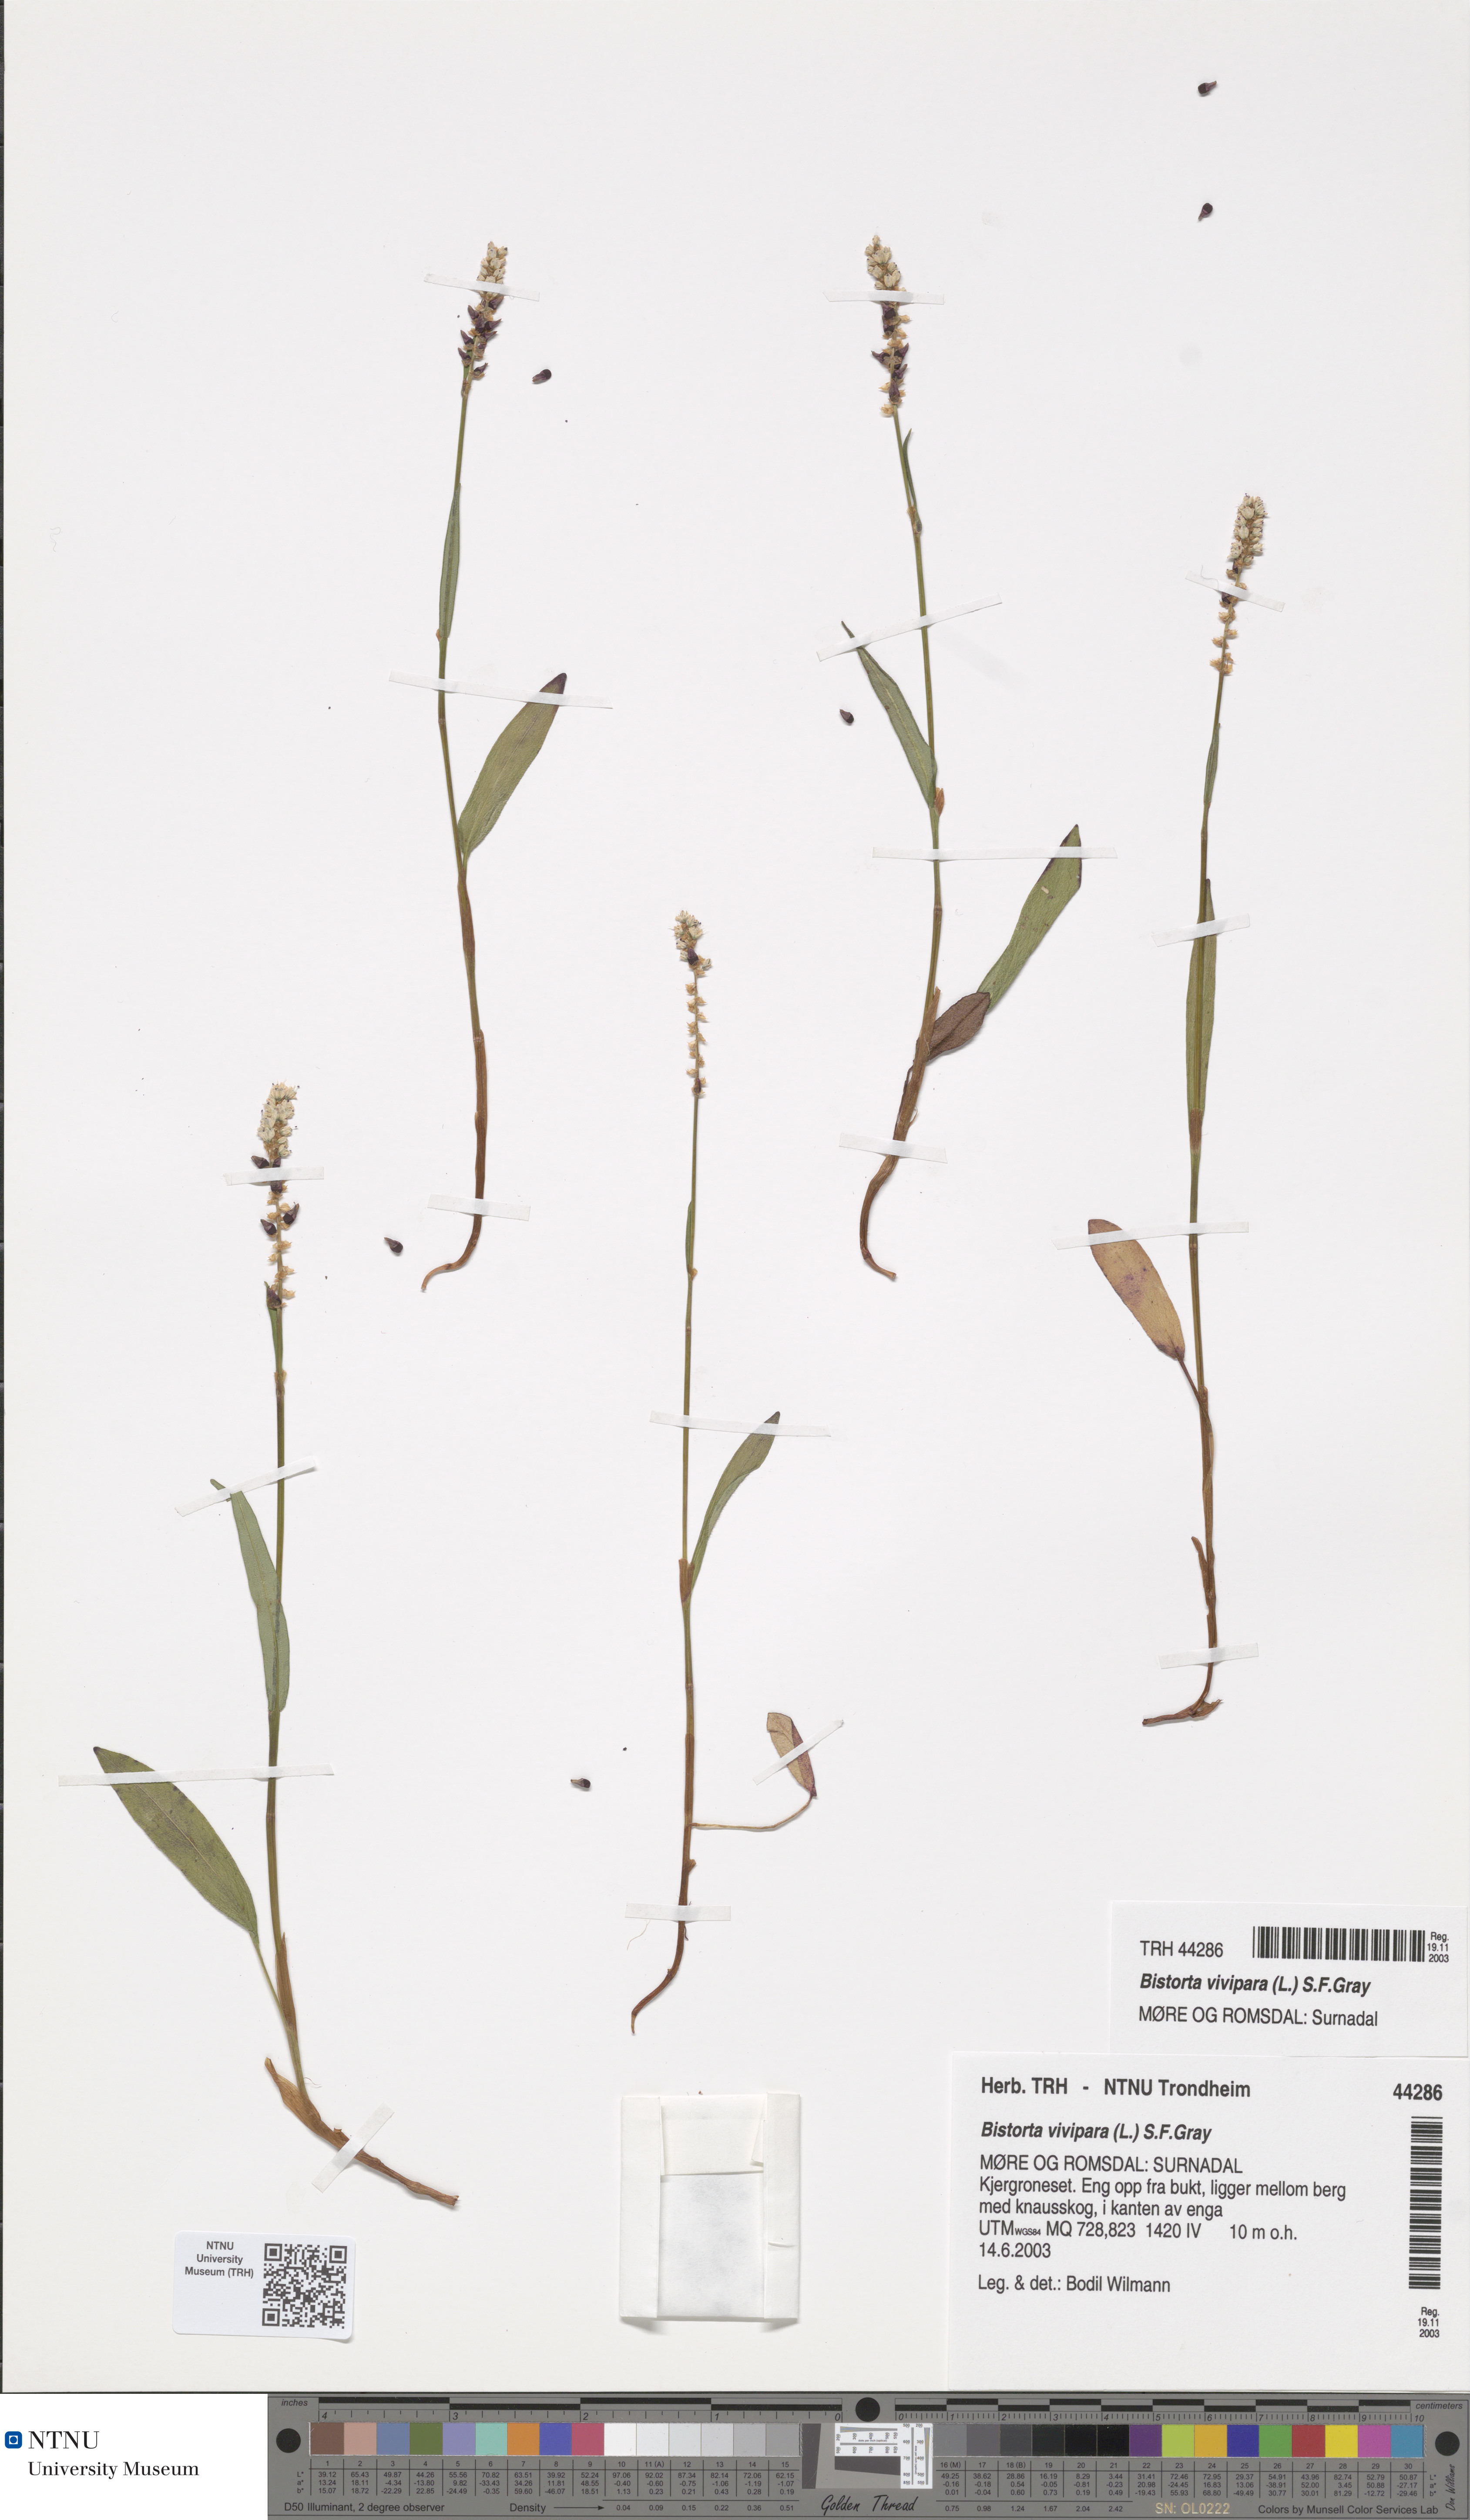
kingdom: Plantae
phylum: Tracheophyta
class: Magnoliopsida
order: Caryophyllales
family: Polygonaceae
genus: Bistorta
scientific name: Bistorta vivipara
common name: Alpine bistort
